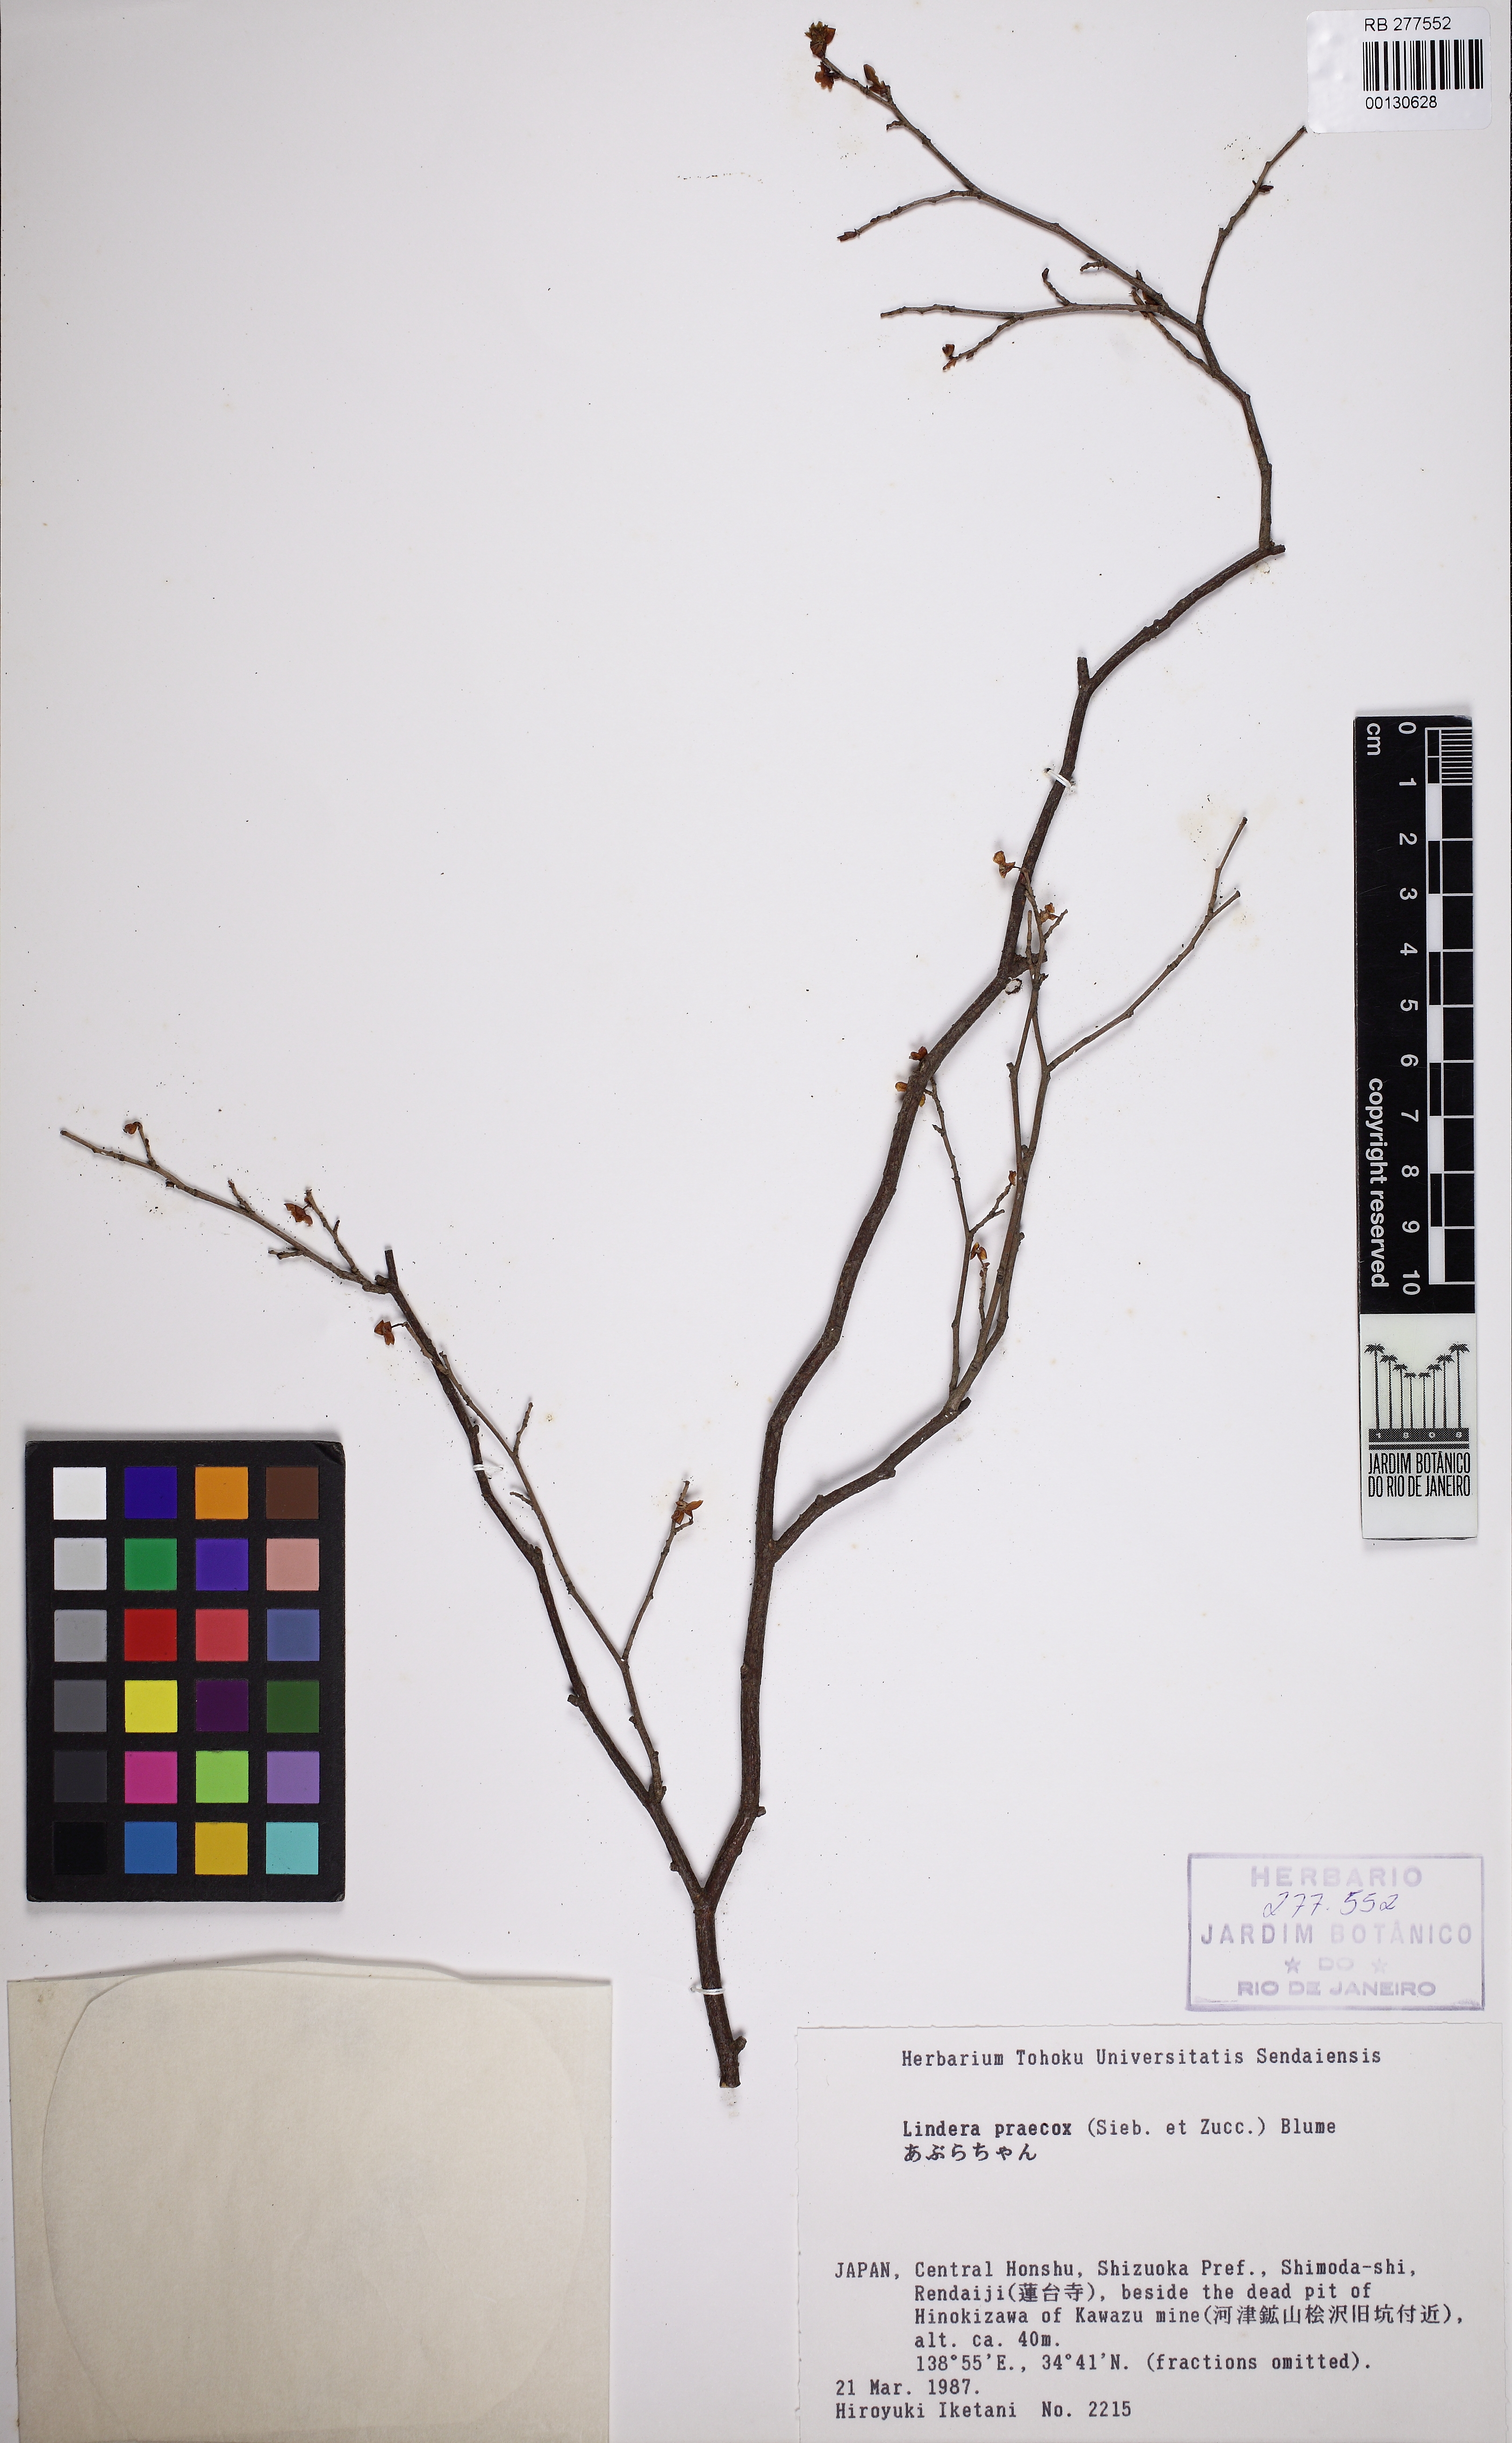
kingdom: Plantae
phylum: Tracheophyta
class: Magnoliopsida
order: Laurales
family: Lauraceae
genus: Lindera
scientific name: Lindera praecox
